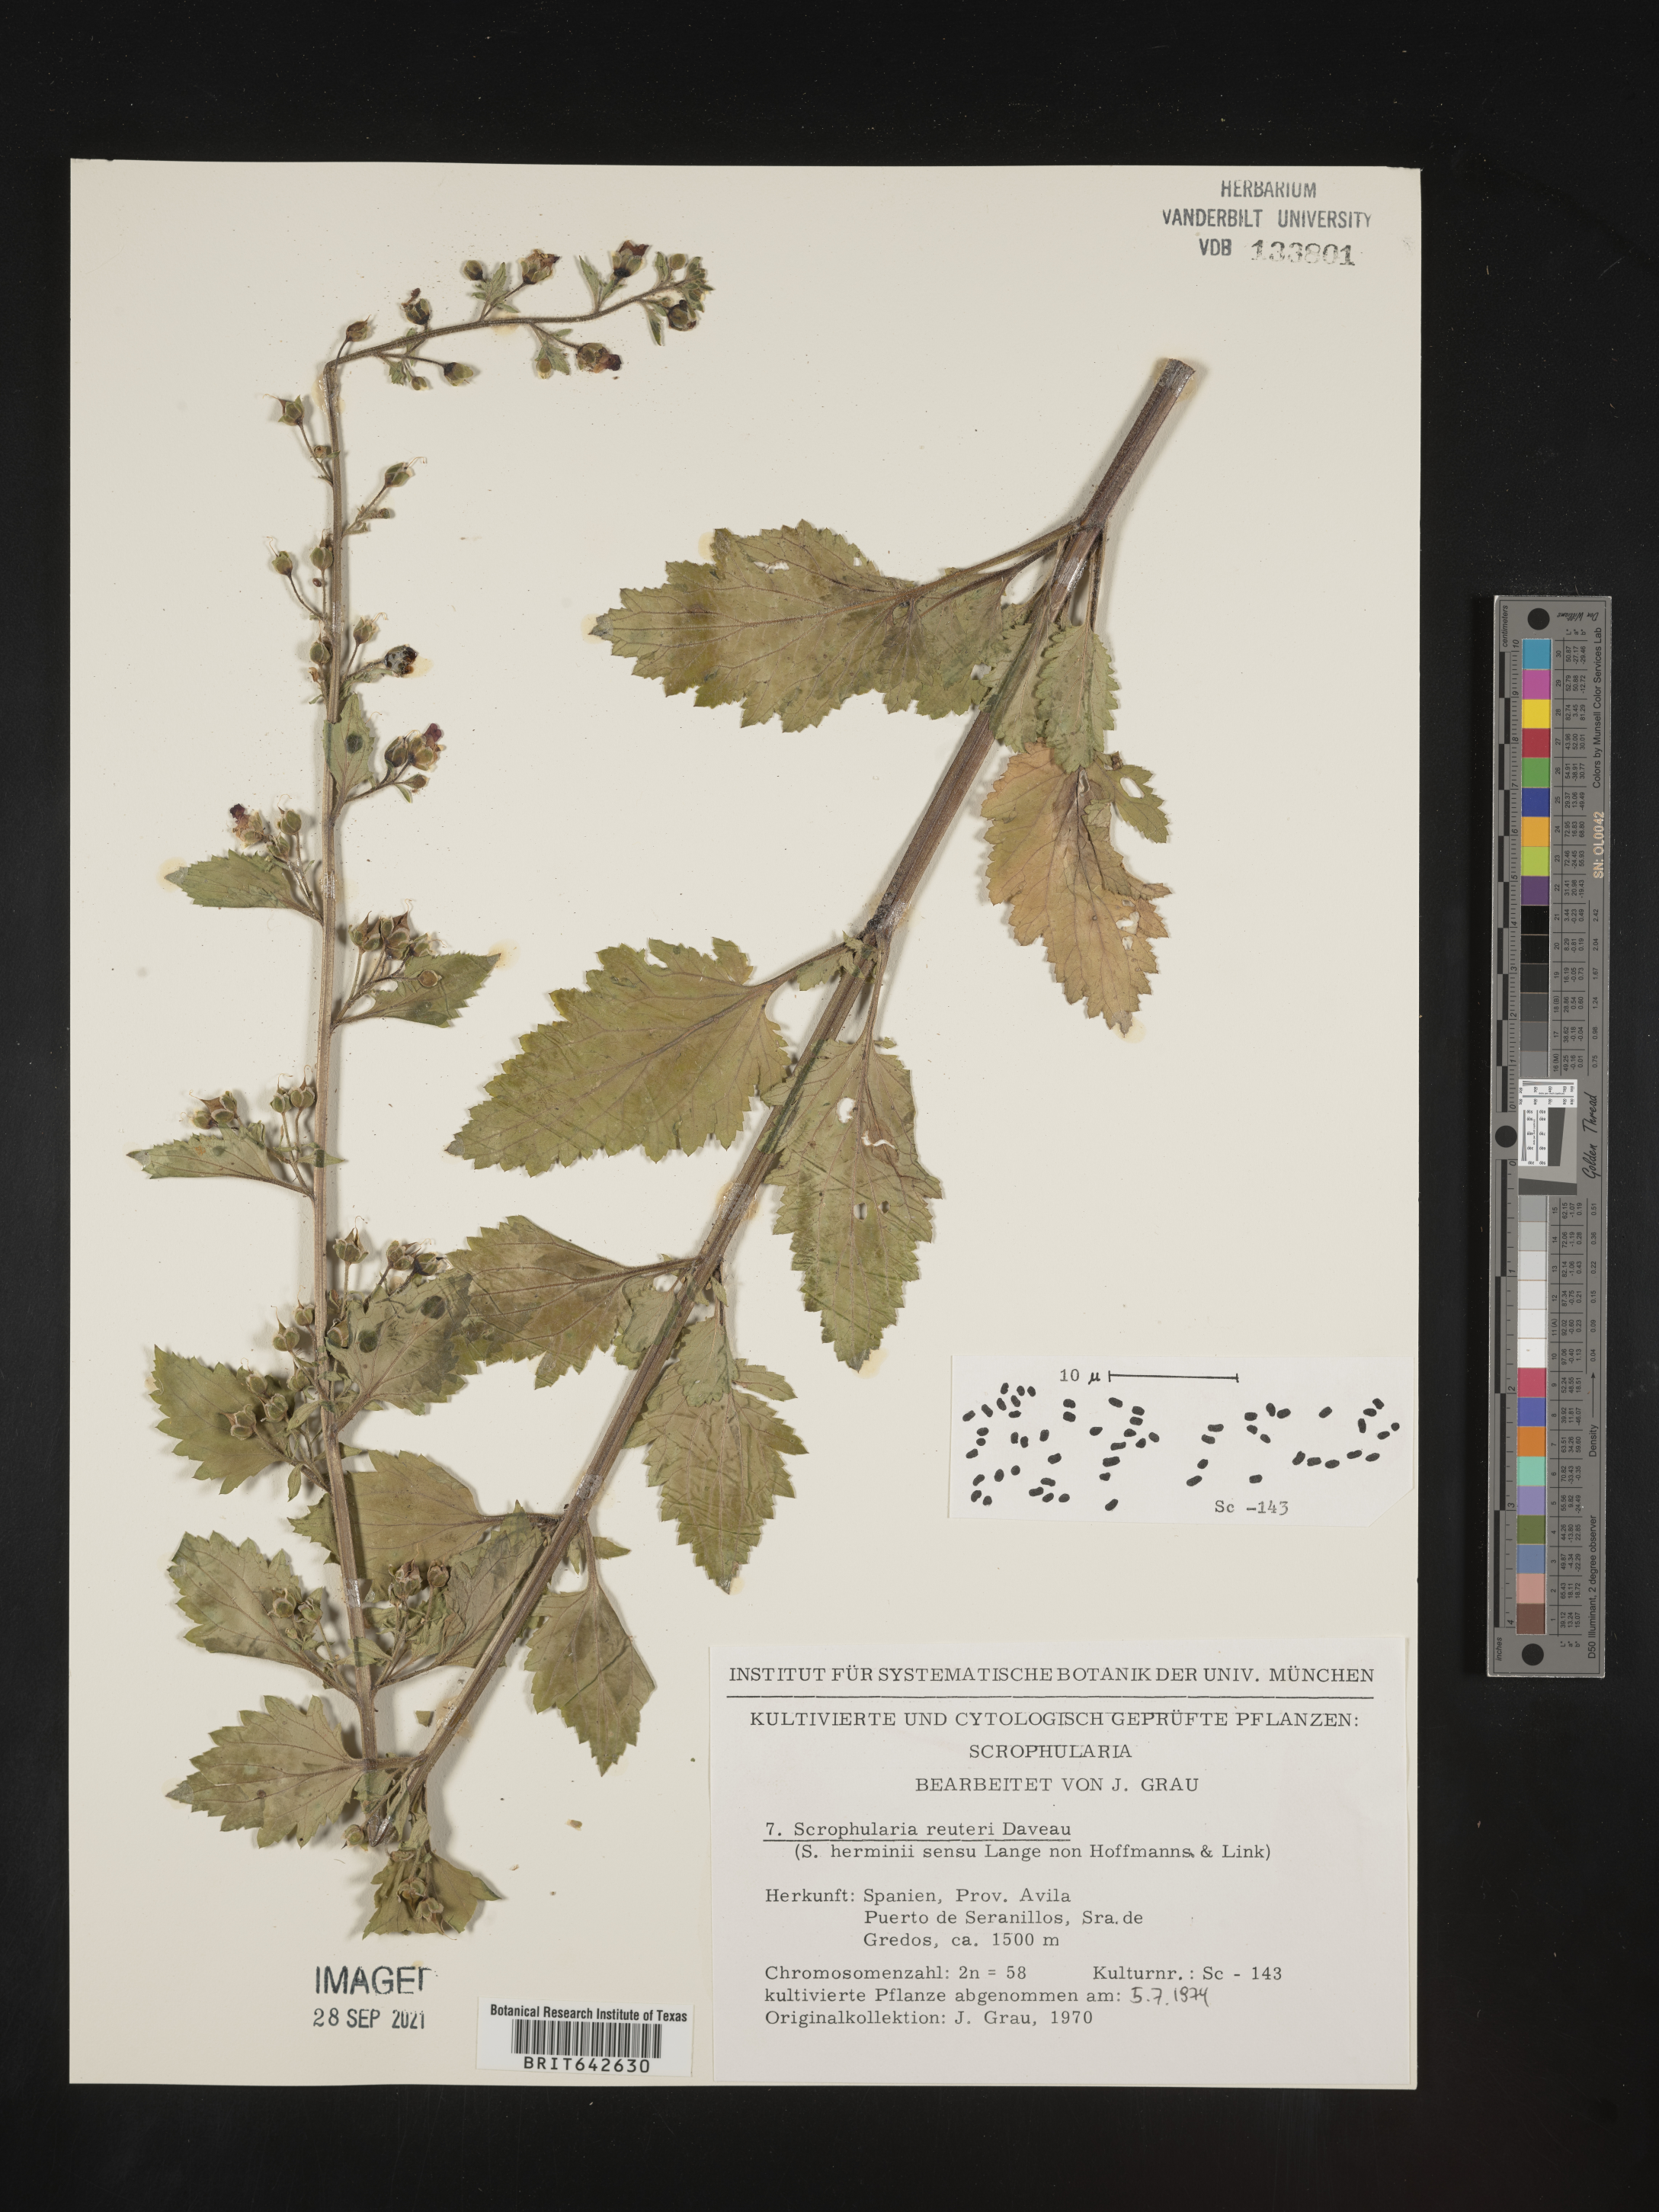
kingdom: Plantae
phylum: Tracheophyta
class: Magnoliopsida
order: Lamiales
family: Scrophulariaceae
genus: Scrophularia
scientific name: Scrophularia
